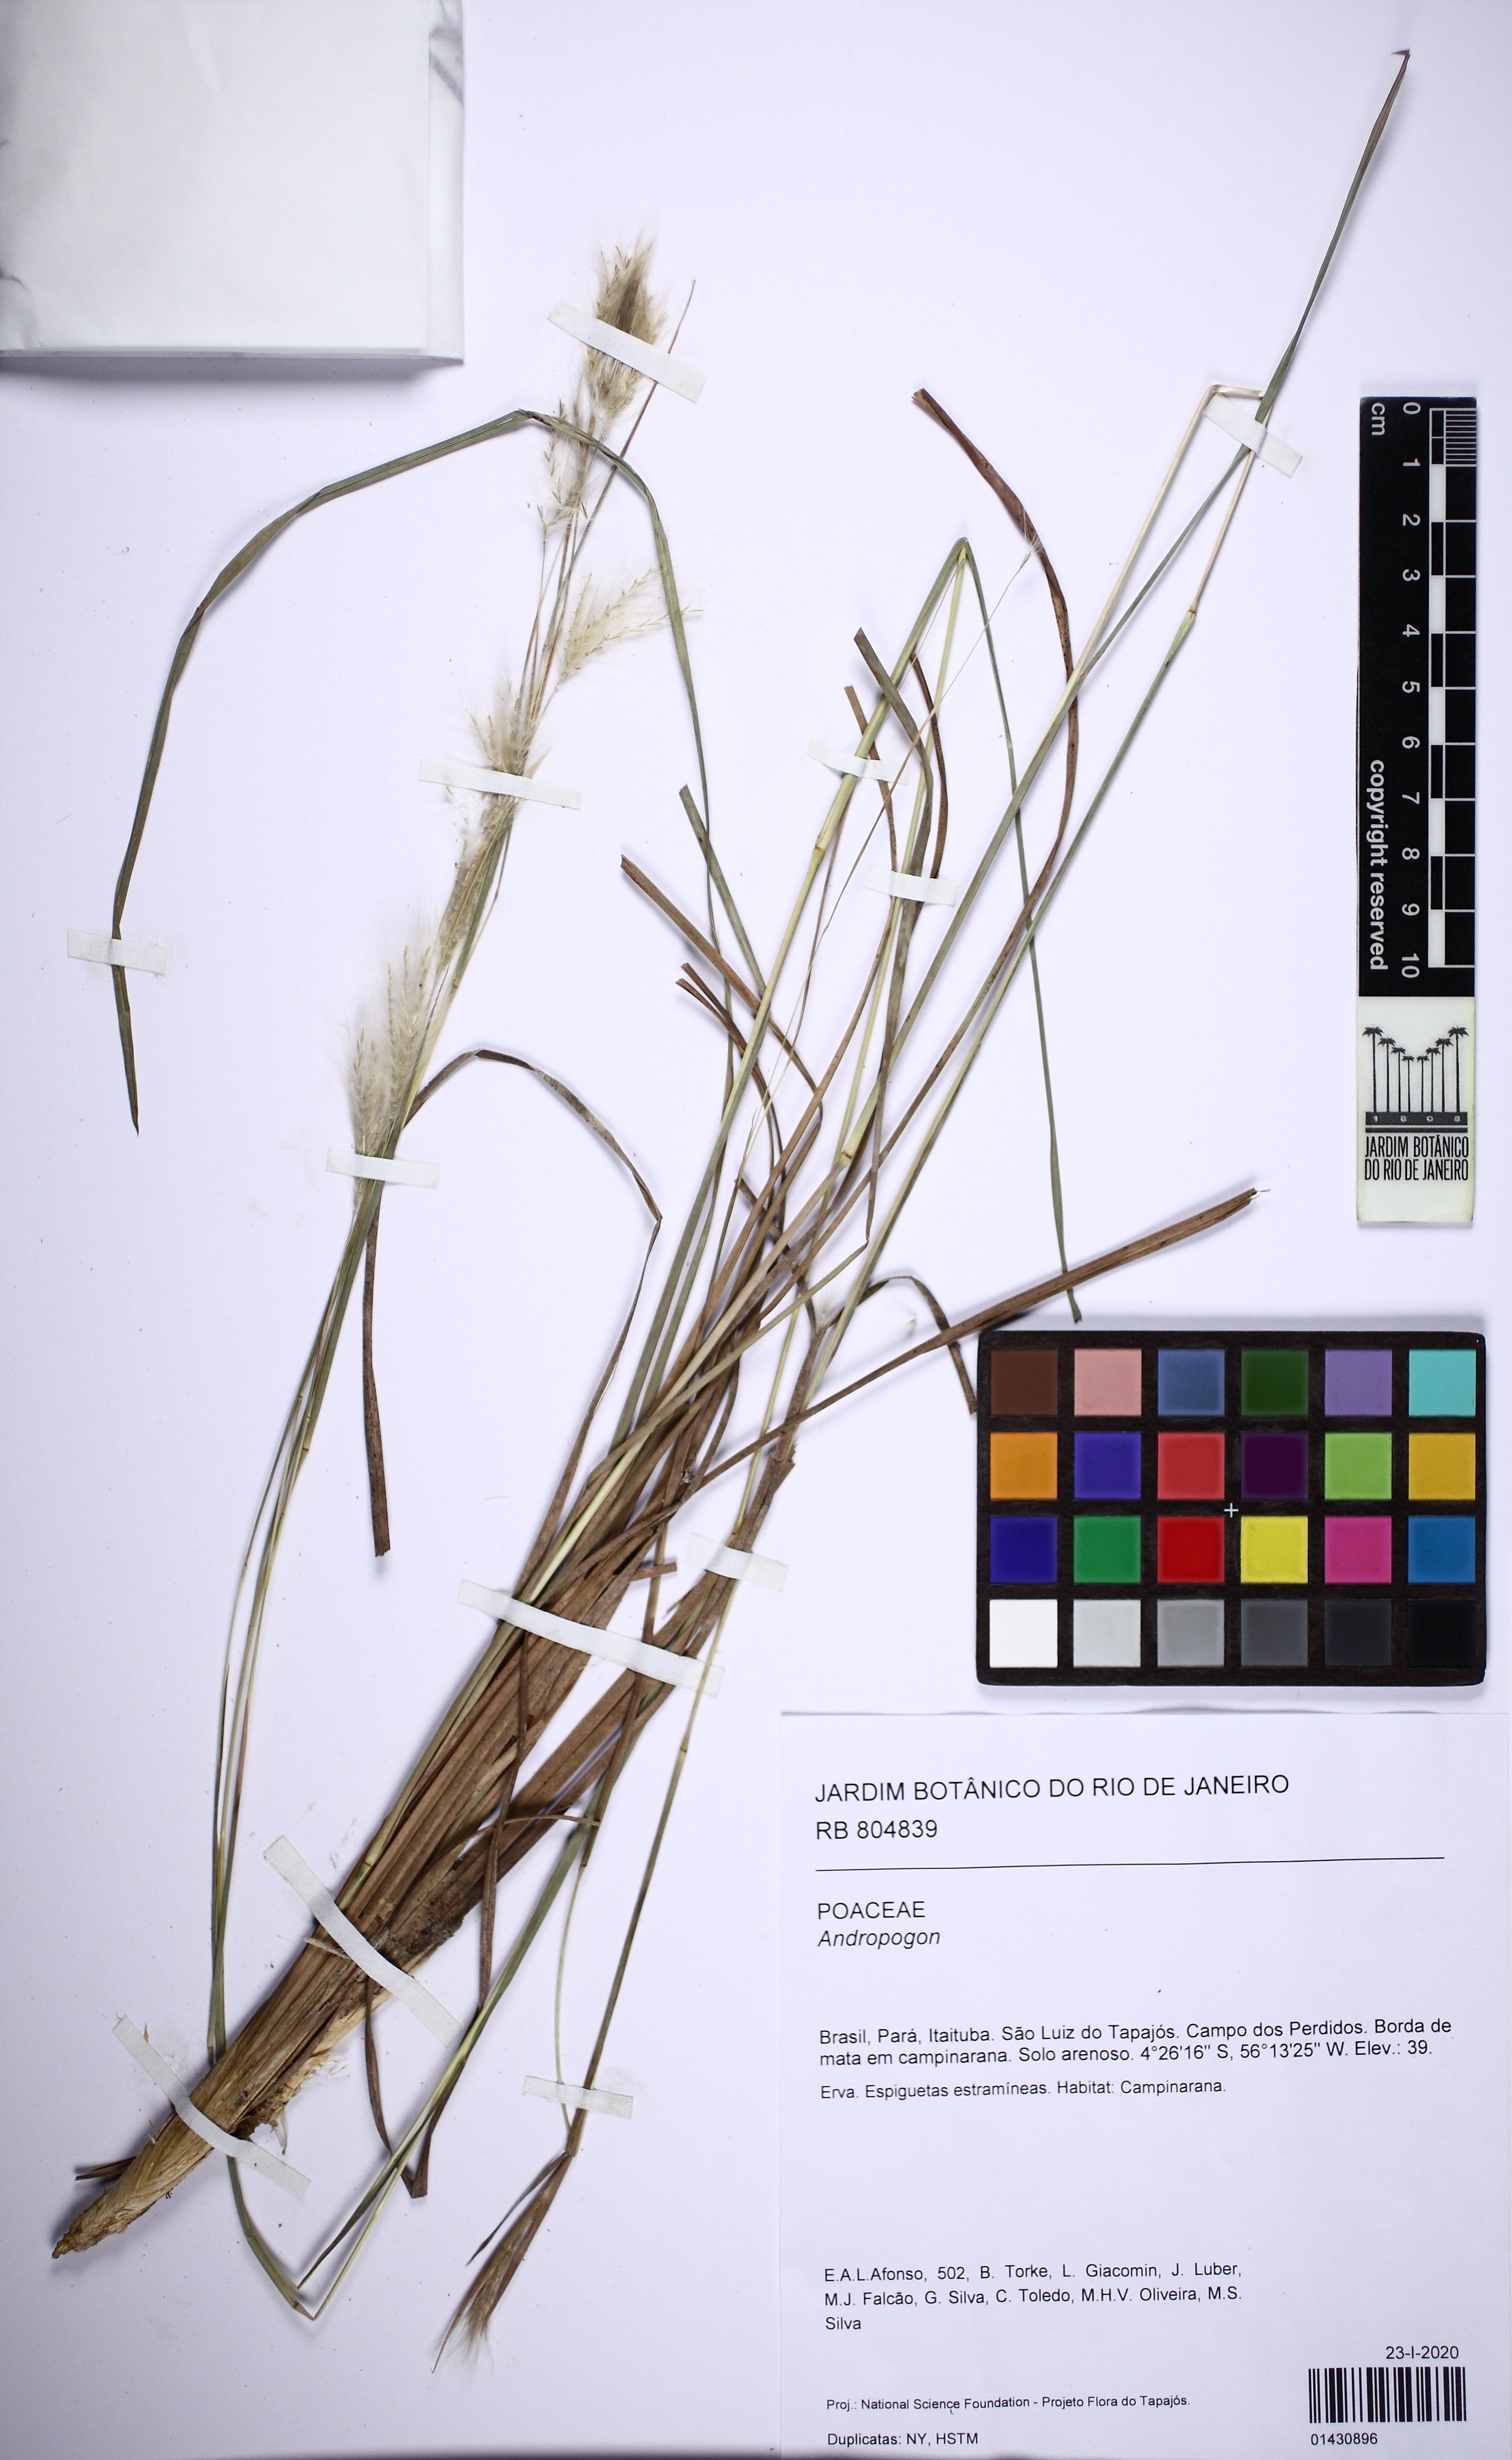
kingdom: Plantae
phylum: Tracheophyta
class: Liliopsida
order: Poales
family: Poaceae
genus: Andropogon
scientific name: Andropogon
